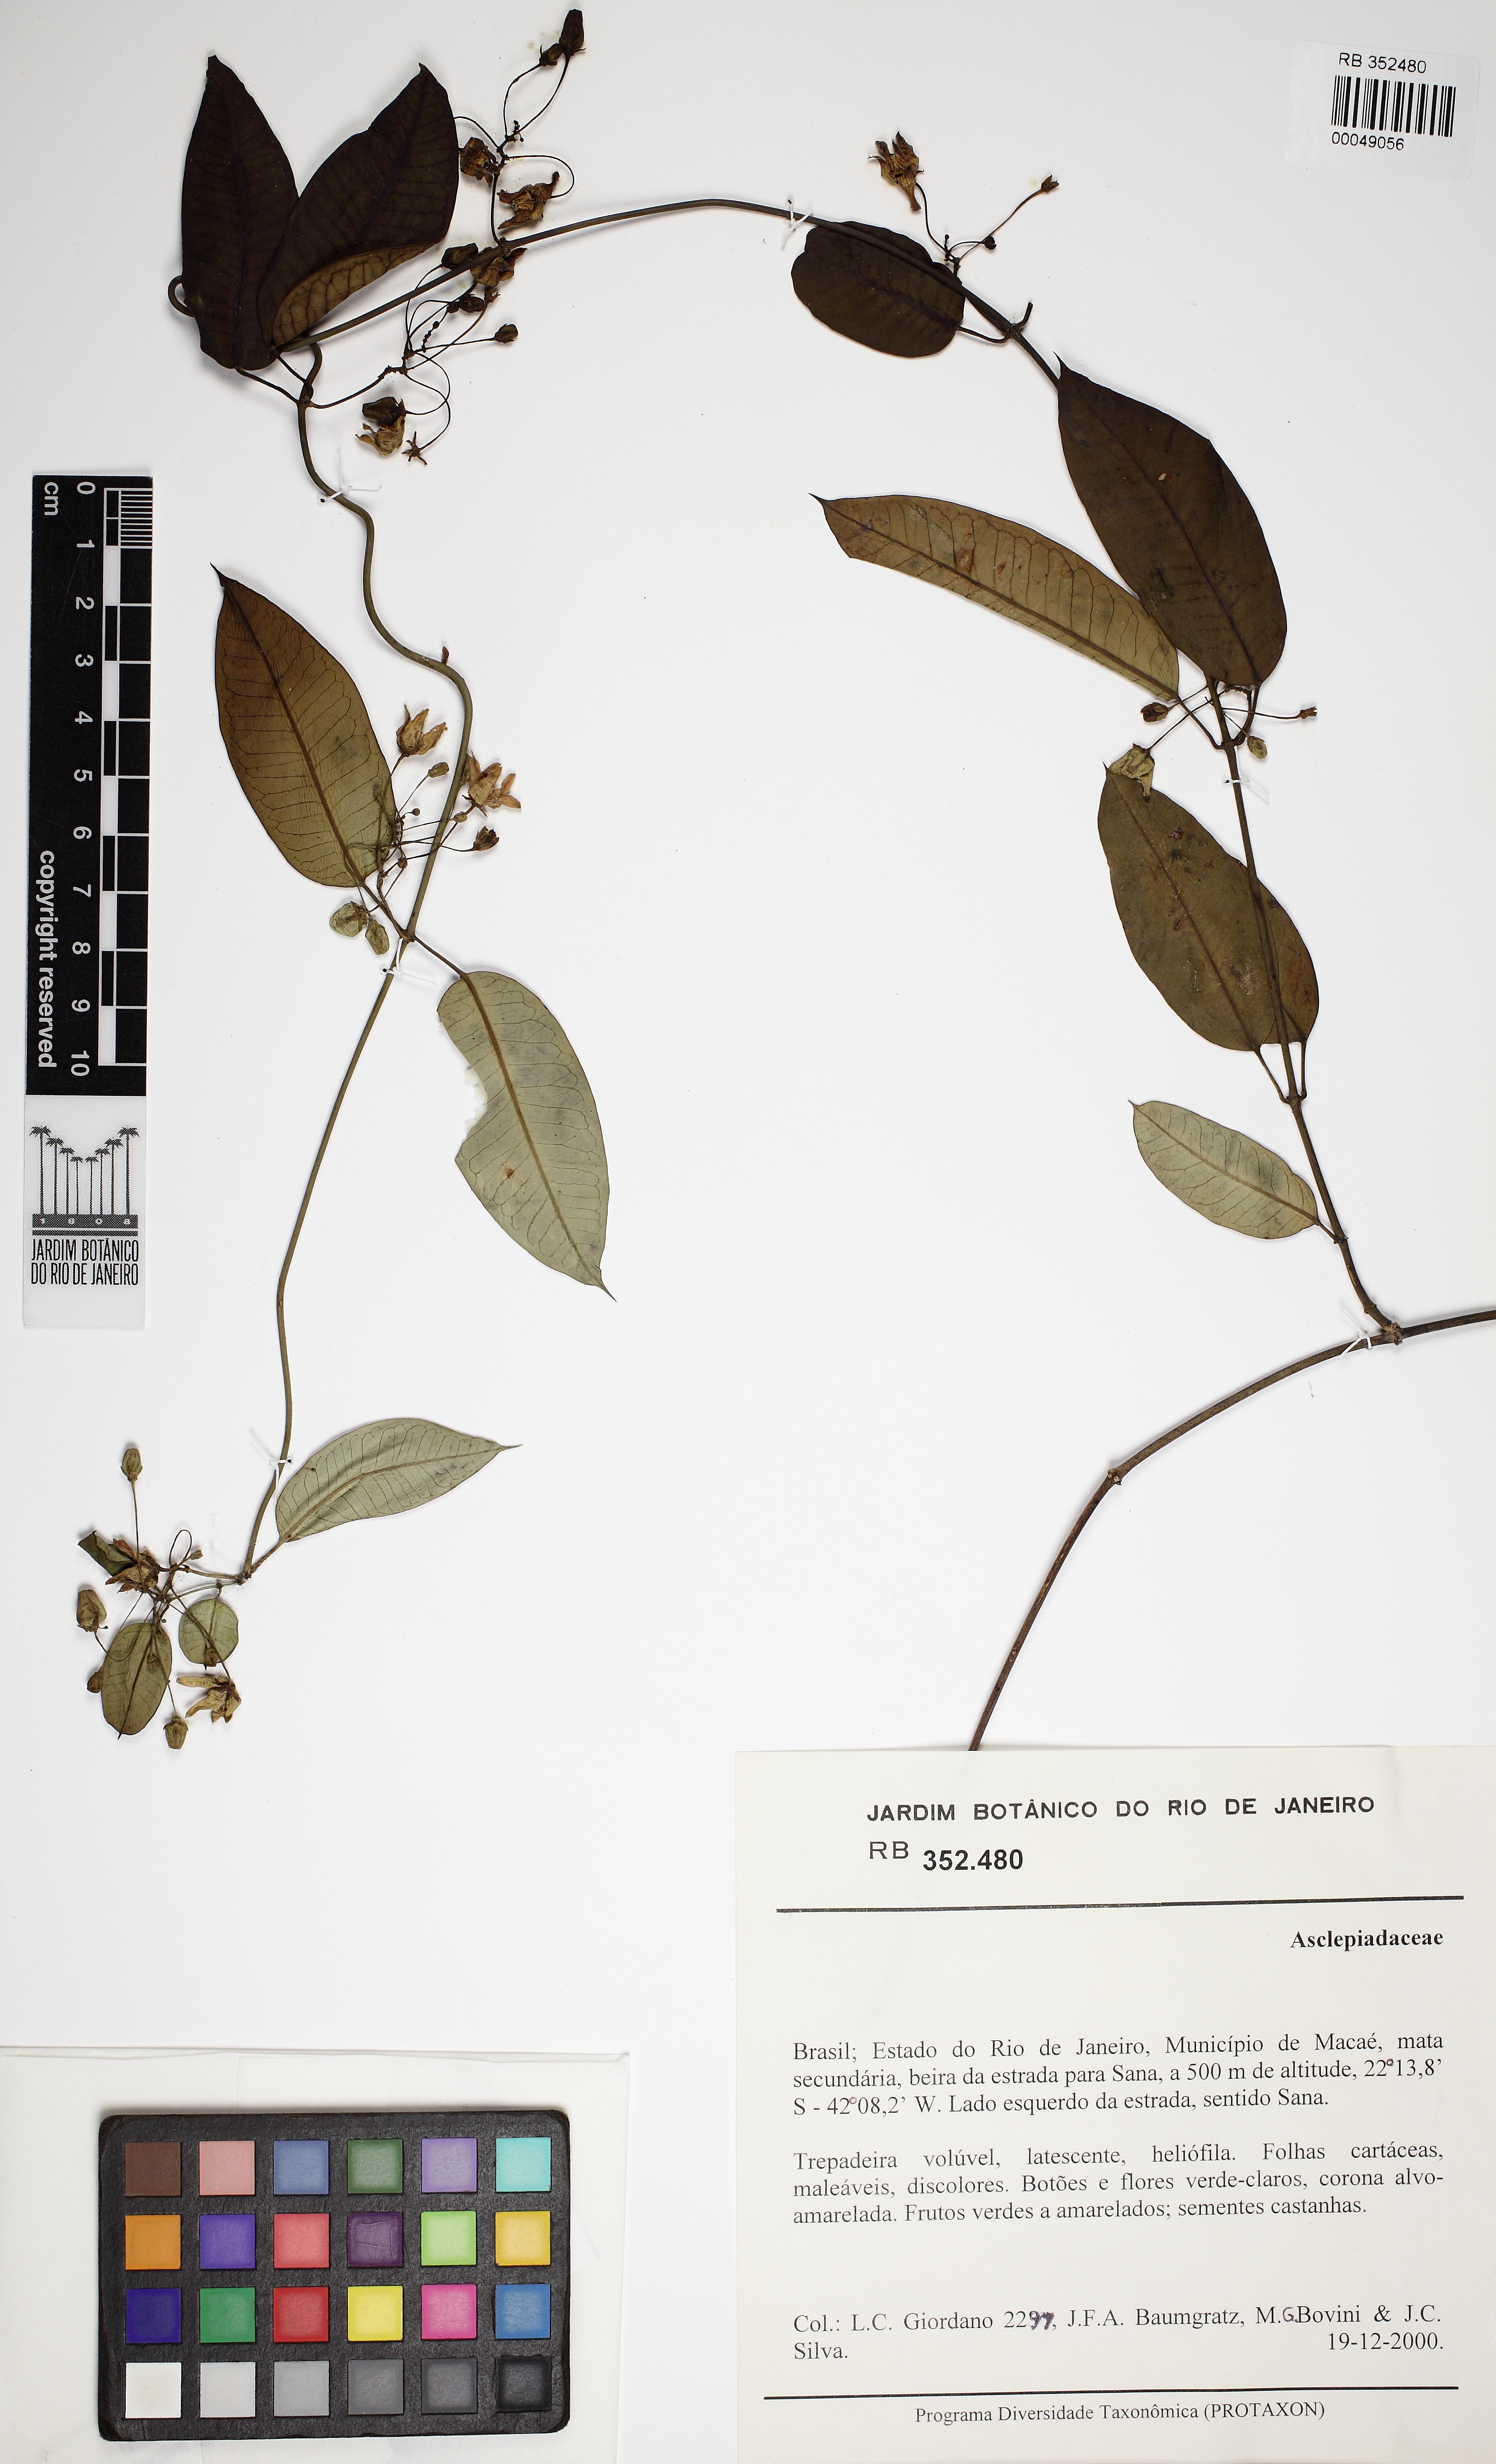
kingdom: Plantae
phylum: Tracheophyta
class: Magnoliopsida
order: Gentianales
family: Apocynaceae
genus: Blepharodon
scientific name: Blepharodon pictum
